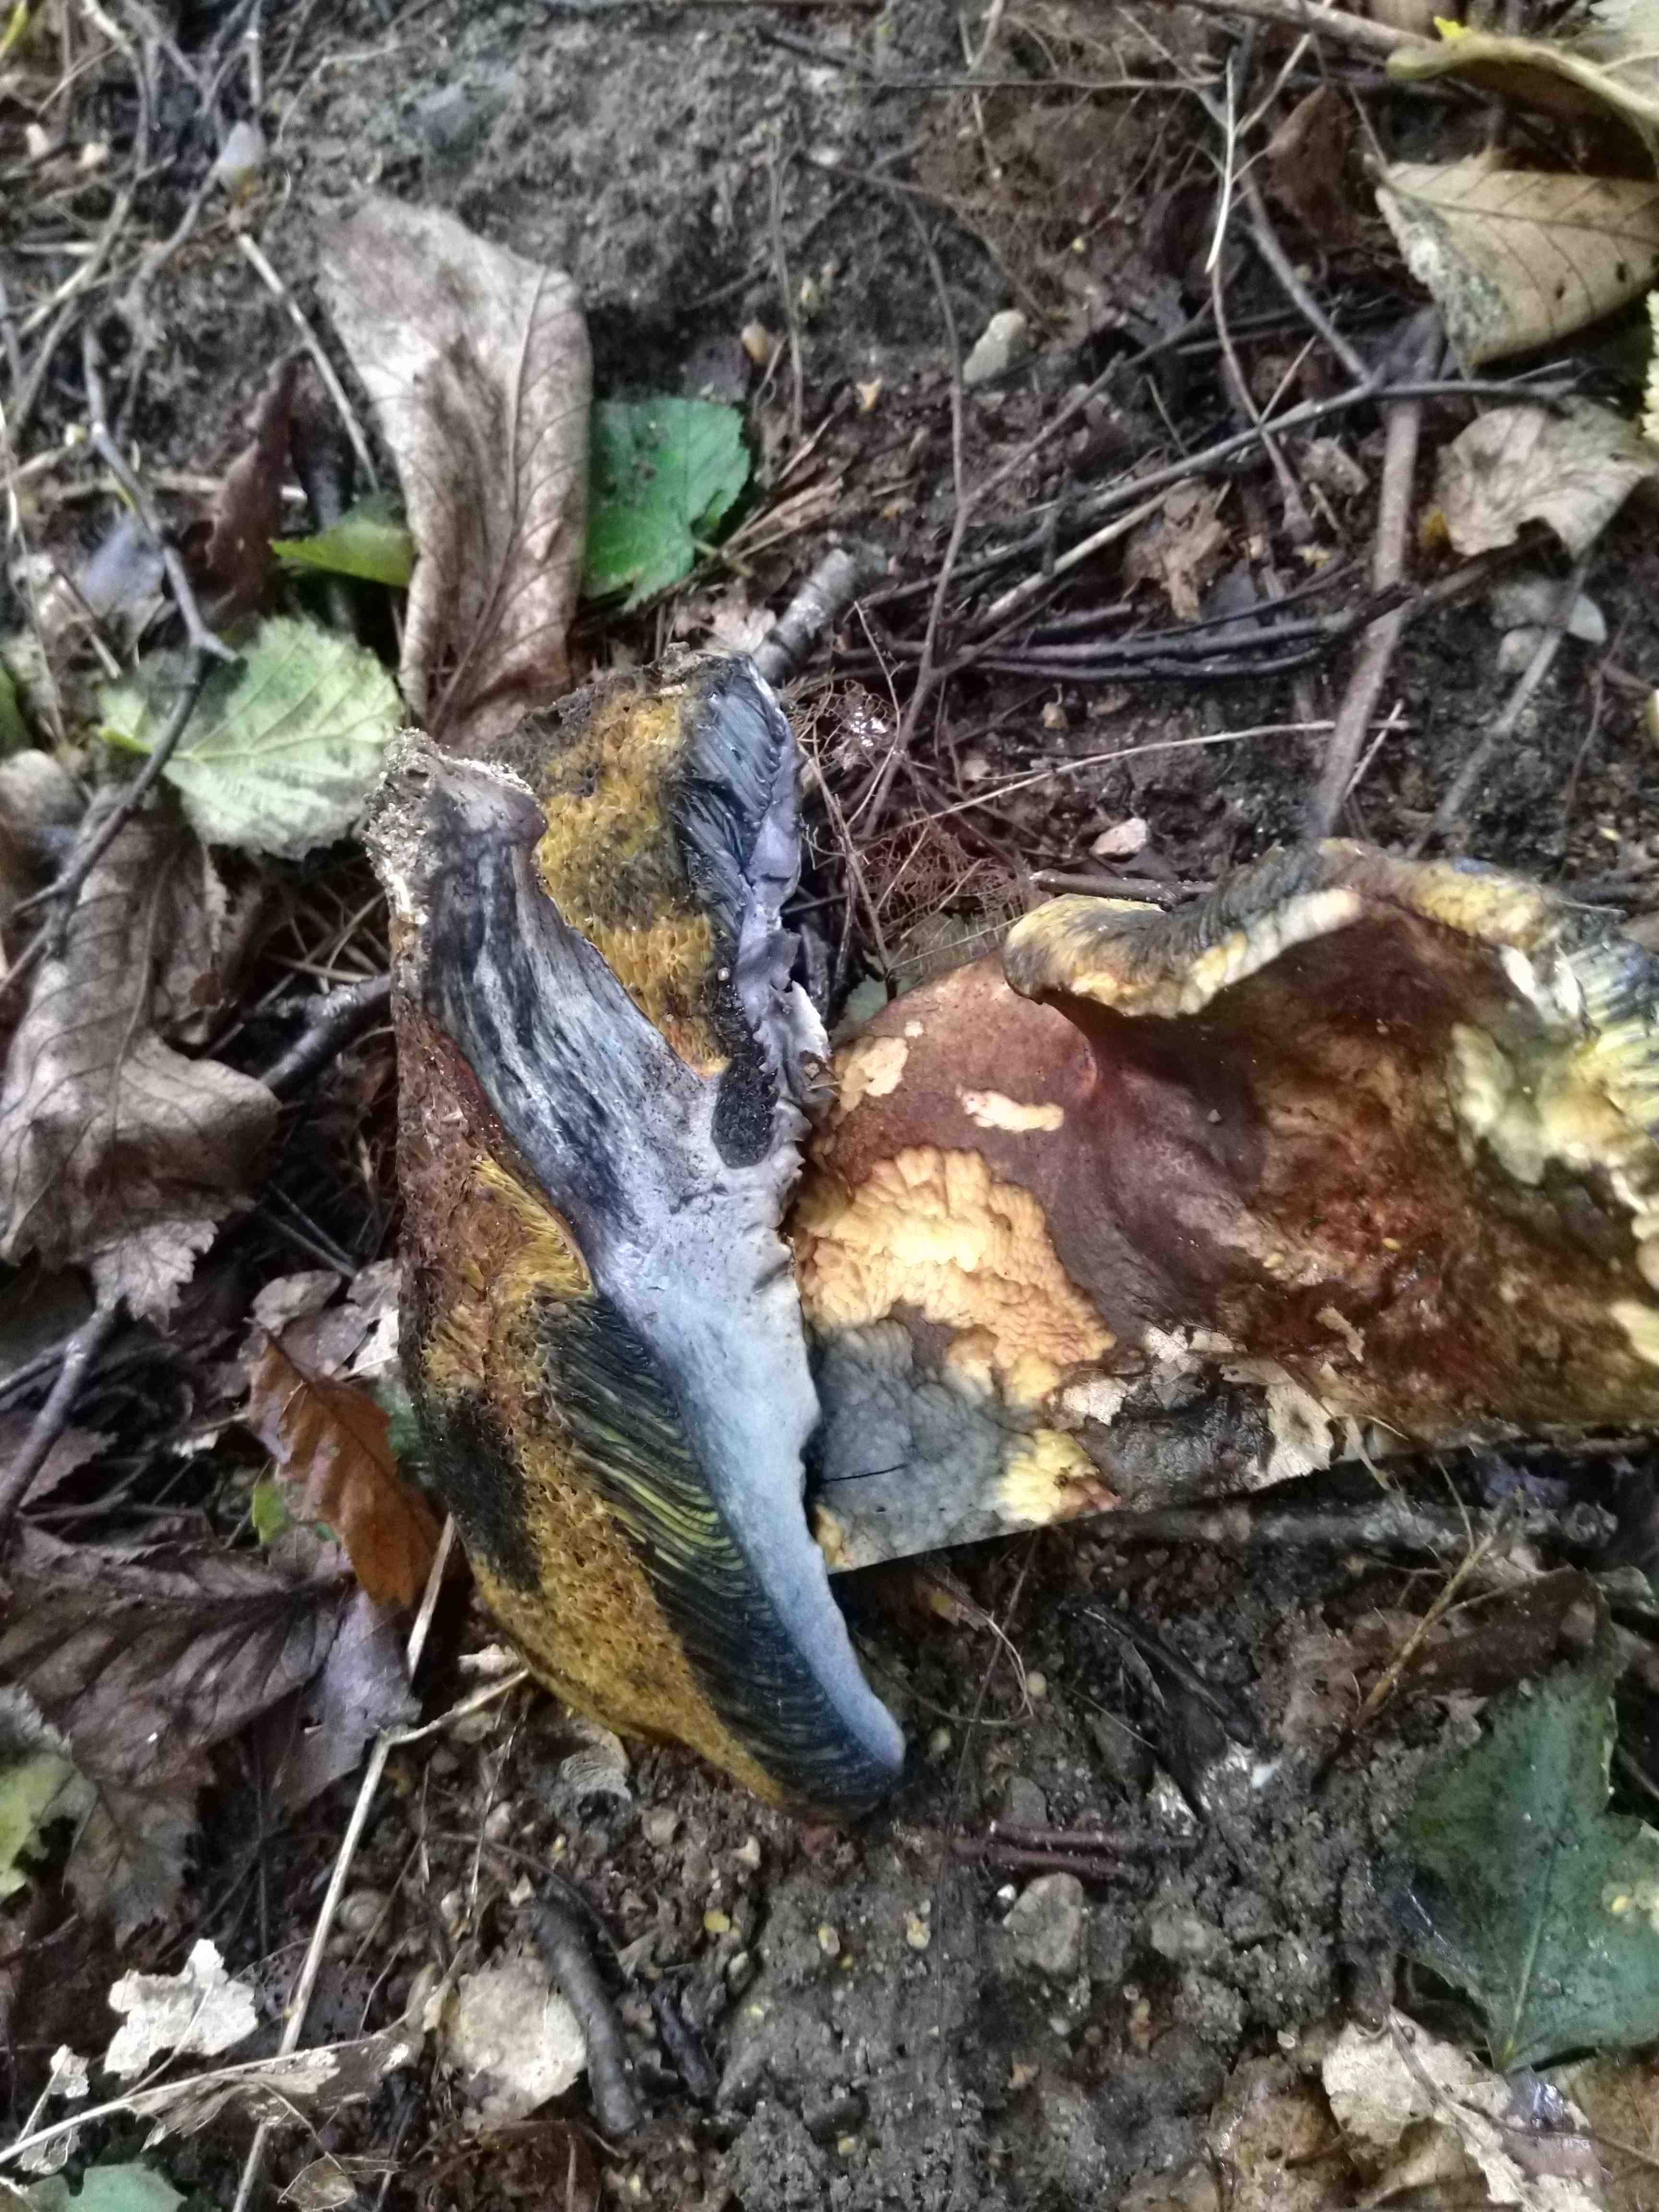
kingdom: Fungi
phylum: Basidiomycota
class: Agaricomycetes
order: Boletales
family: Boletaceae
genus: Cyanoboletus
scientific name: Cyanoboletus pulverulentus
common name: sortblånende rørhat
